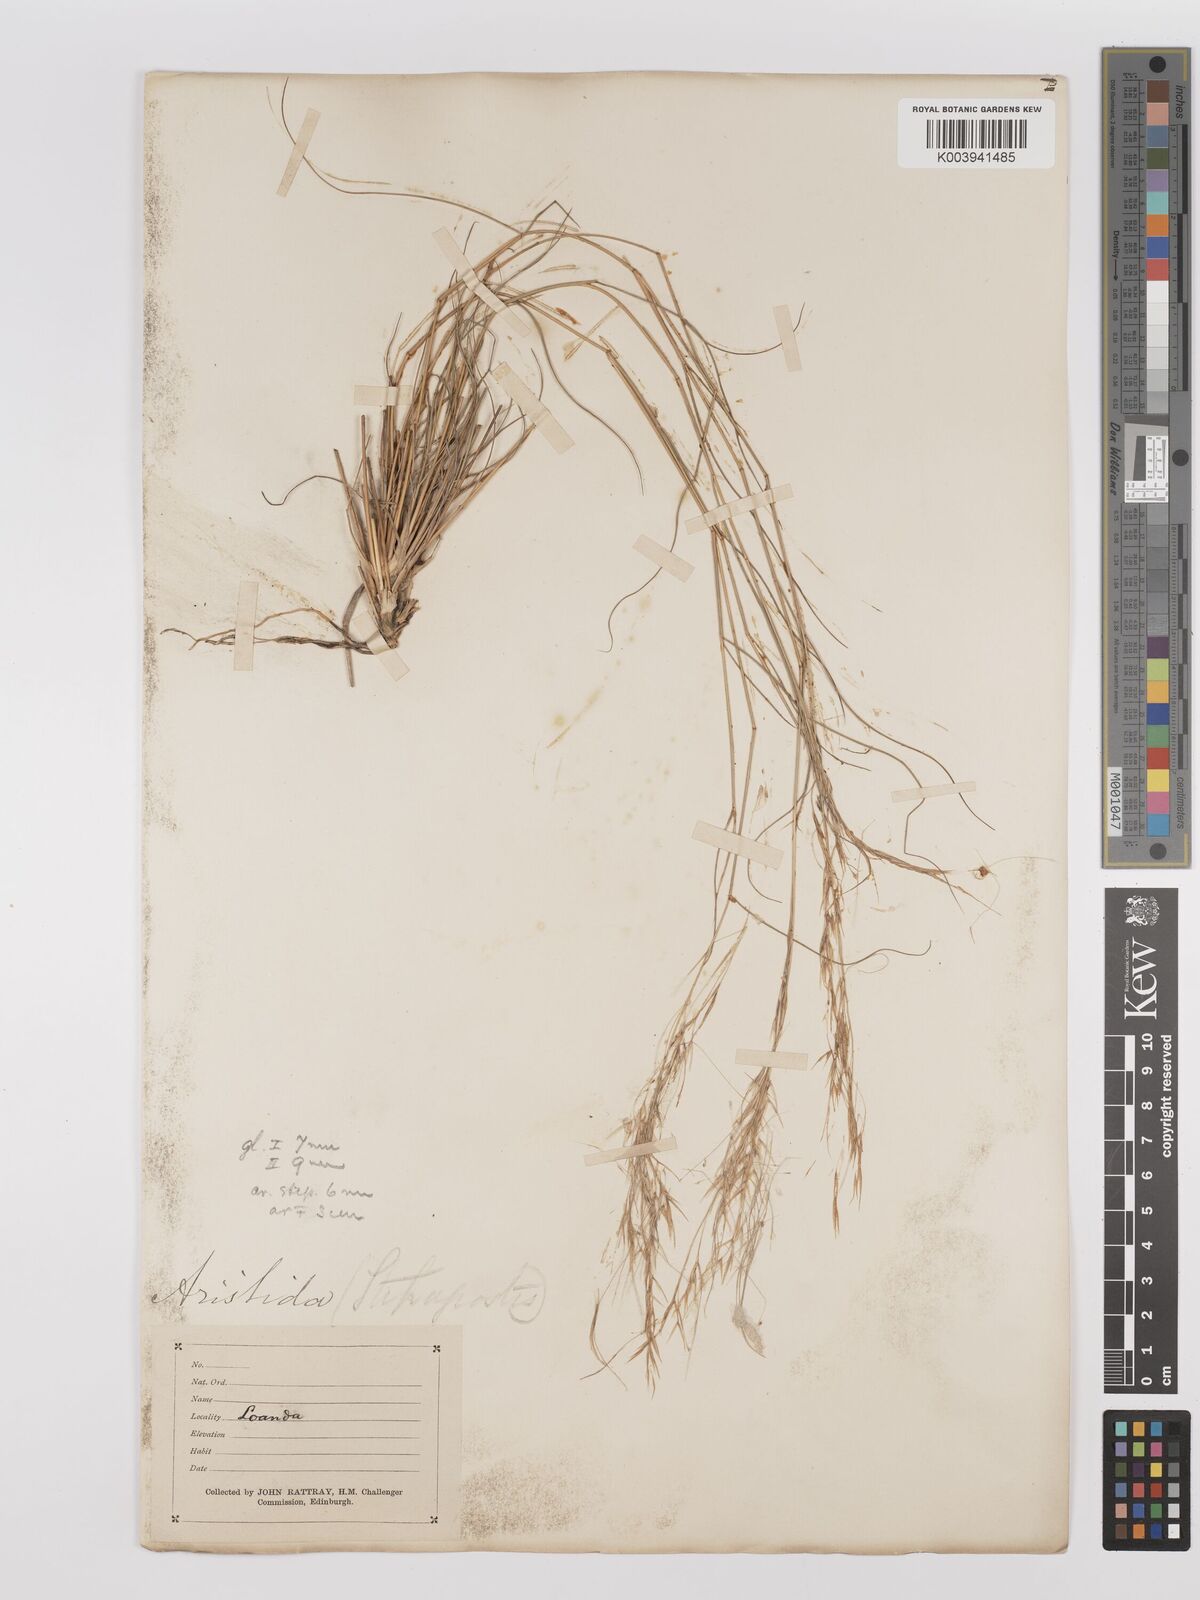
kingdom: Plantae
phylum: Tracheophyta
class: Liliopsida
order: Poales
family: Poaceae
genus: Stipagrostis
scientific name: Stipagrostis uniplumis
